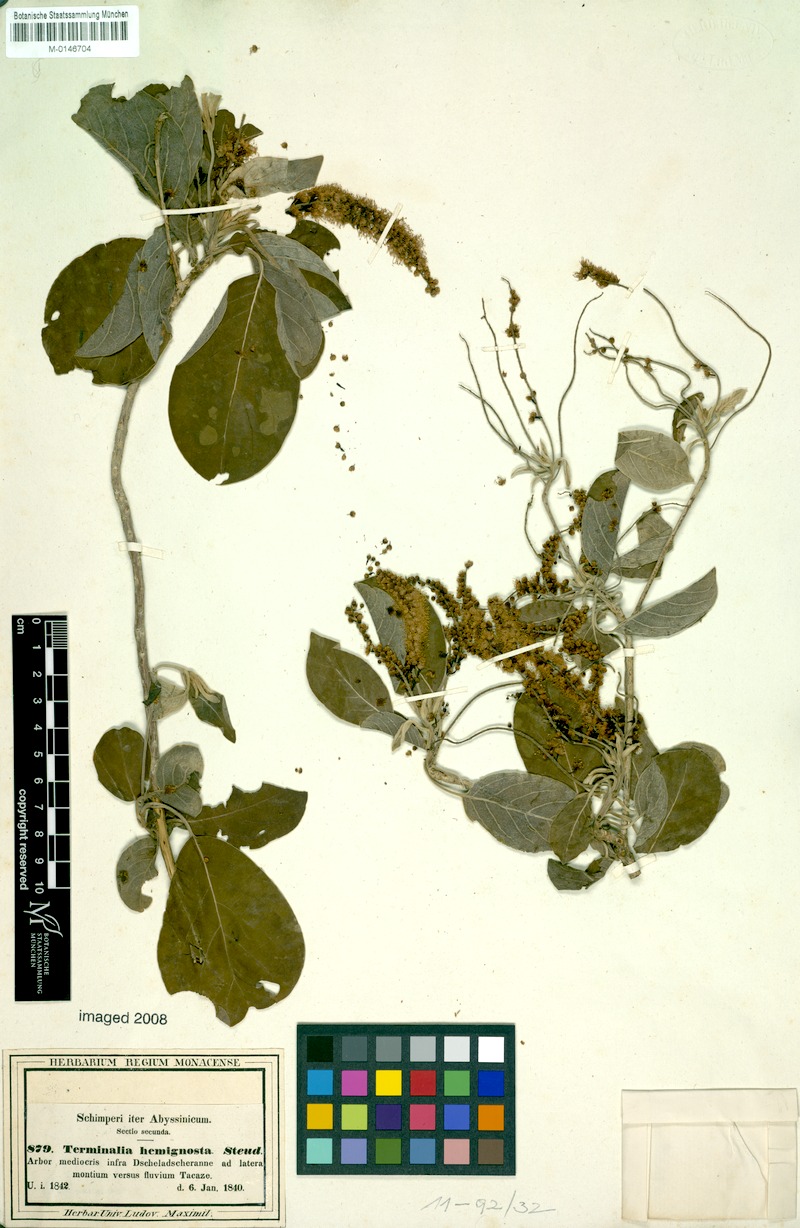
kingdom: Plantae
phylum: Tracheophyta
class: Magnoliopsida
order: Myrtales
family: Combretaceae
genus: Terminalia
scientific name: Terminalia brownii
